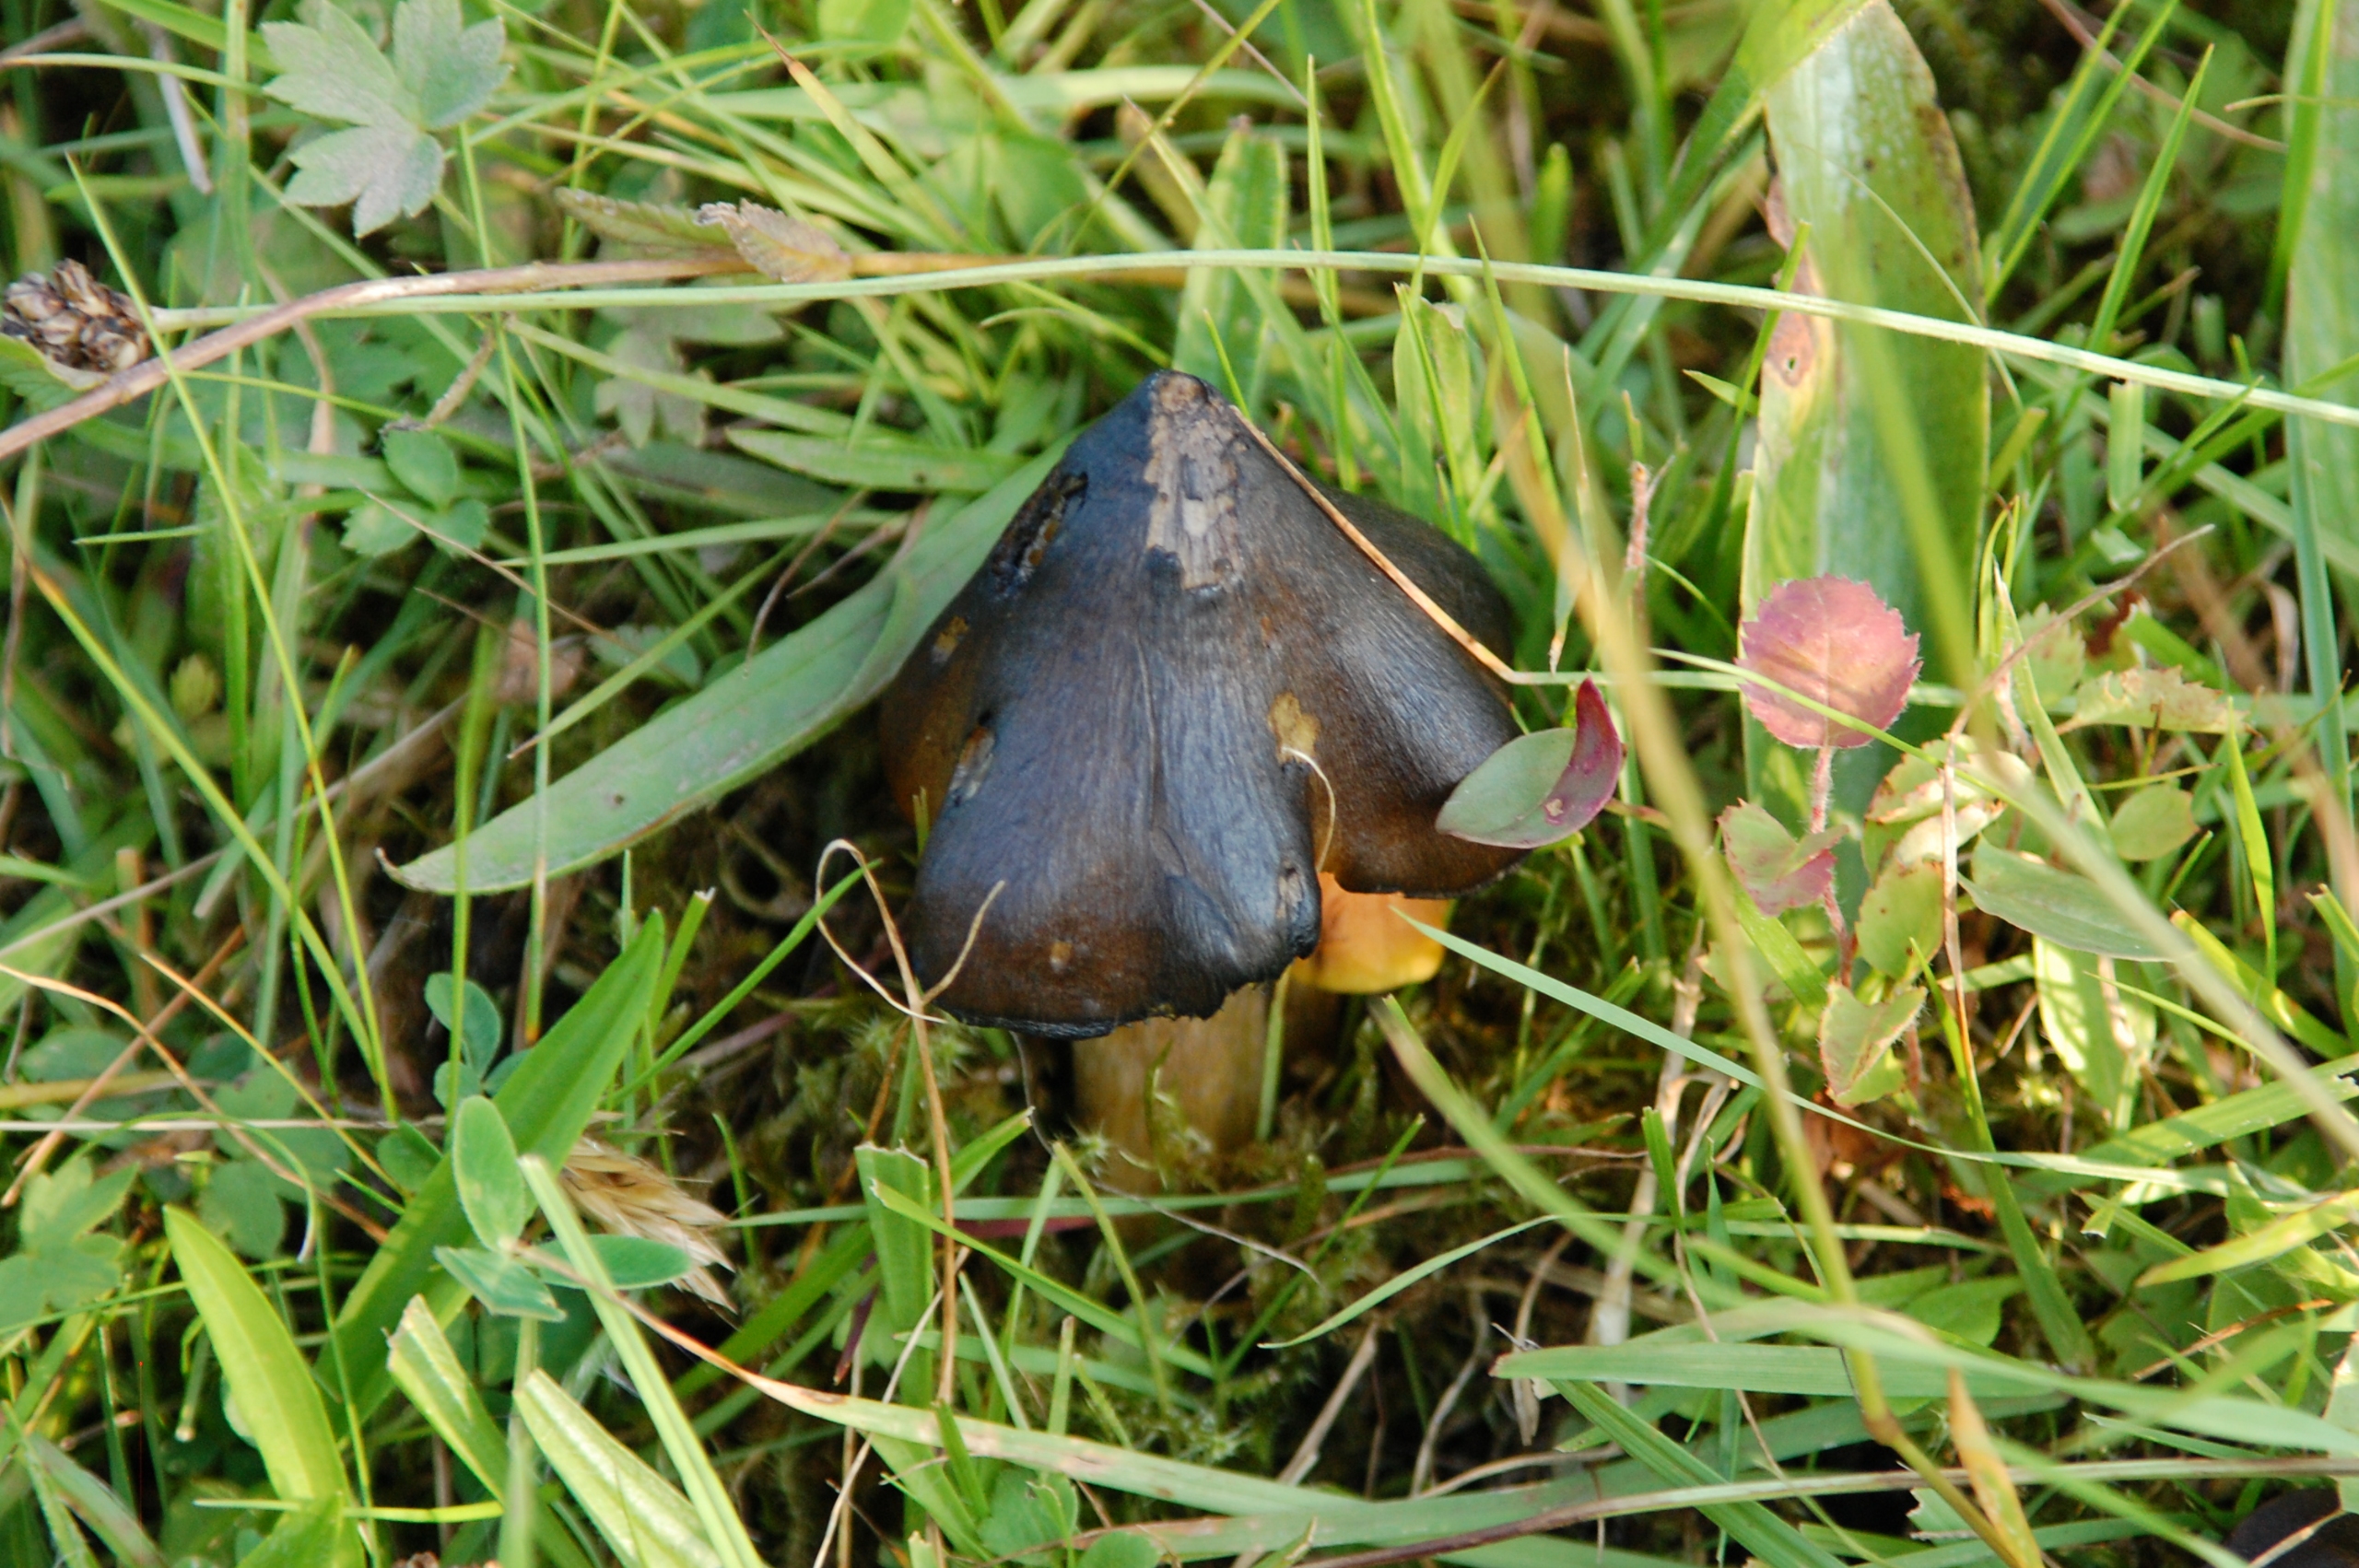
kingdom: Fungi
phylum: Basidiomycota
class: Agaricomycetes
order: Agaricales
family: Hygrophoraceae
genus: Hygrocybe
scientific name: Hygrocybe conica
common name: Kegle-vokshat (varietet
